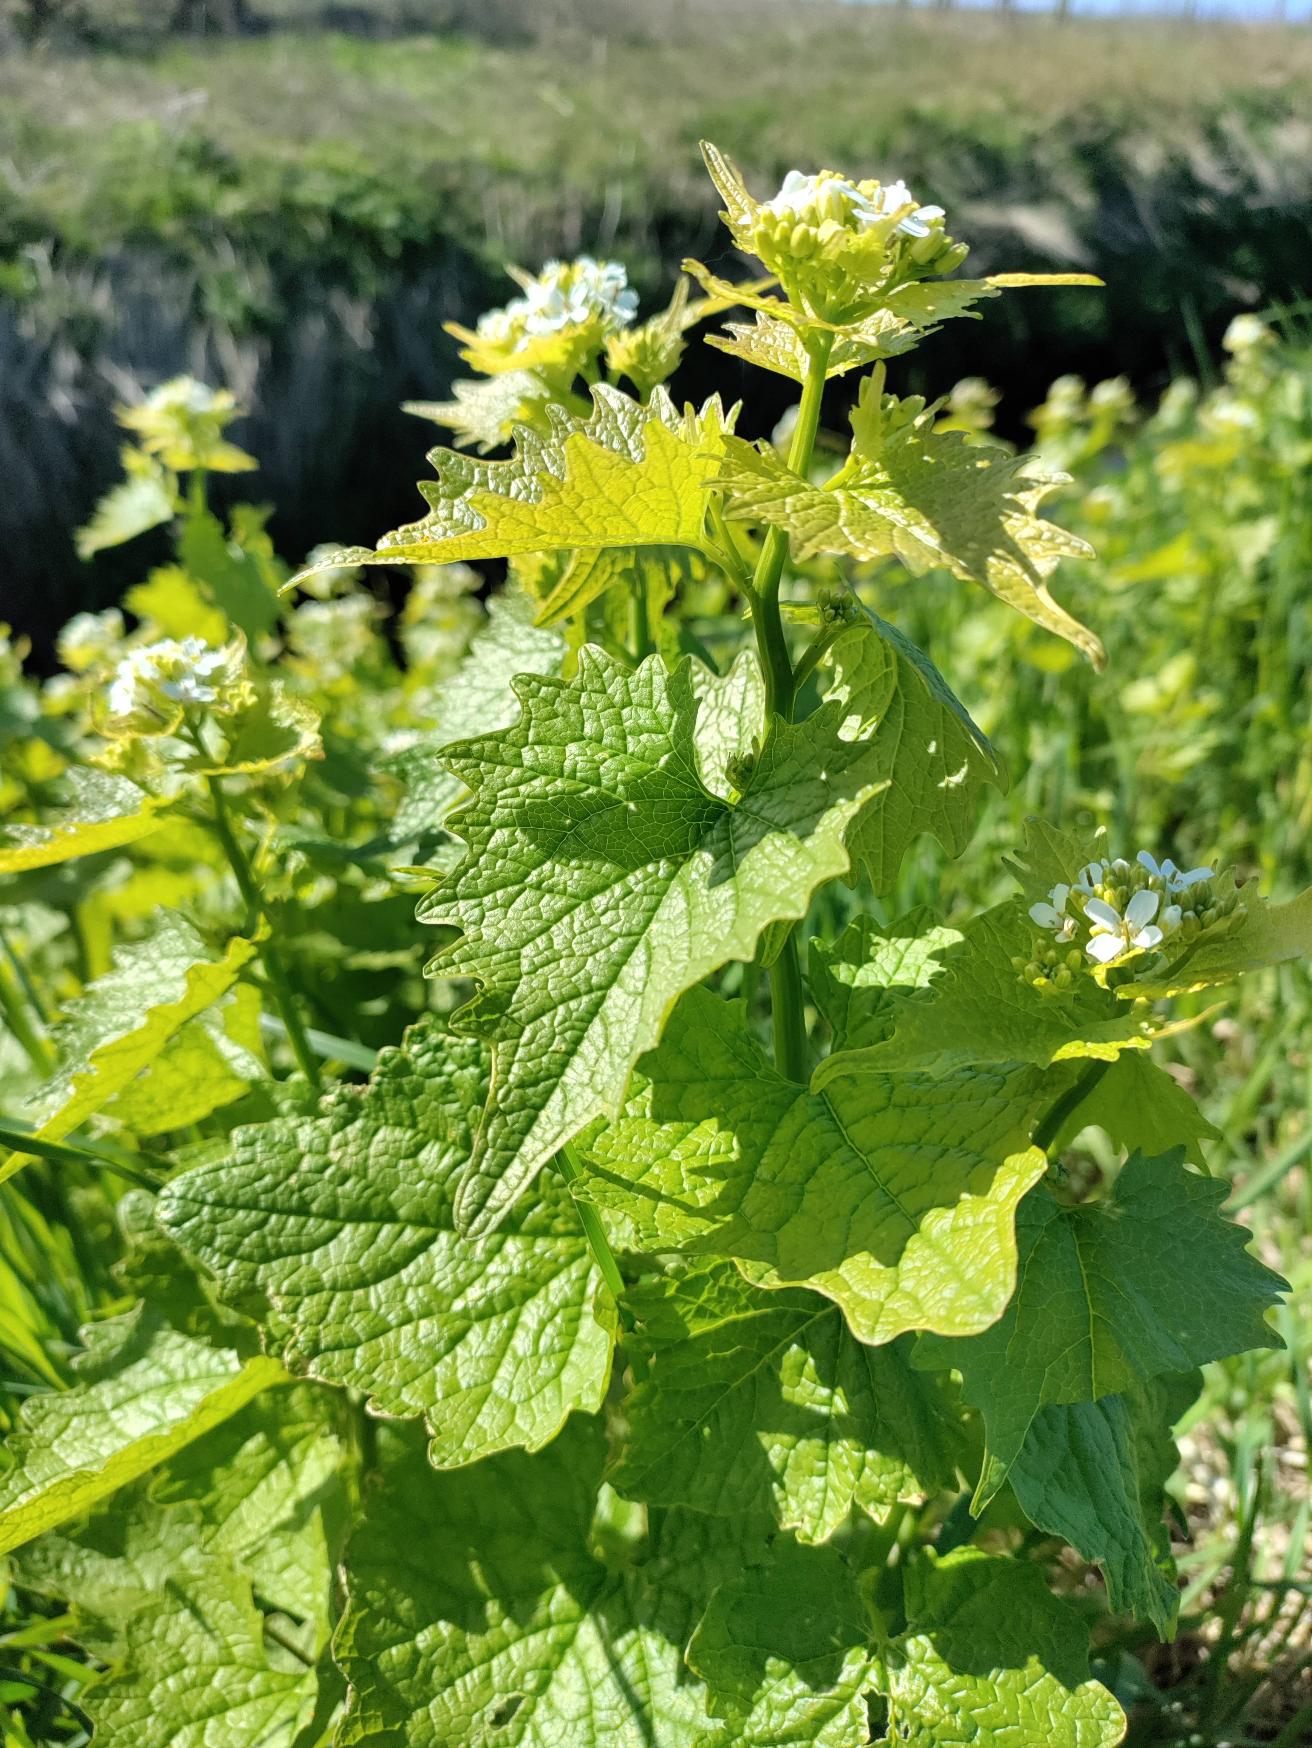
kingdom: Plantae
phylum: Tracheophyta
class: Magnoliopsida
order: Brassicales
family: Brassicaceae
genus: Alliaria
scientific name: Alliaria petiolata
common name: Løgkarse
